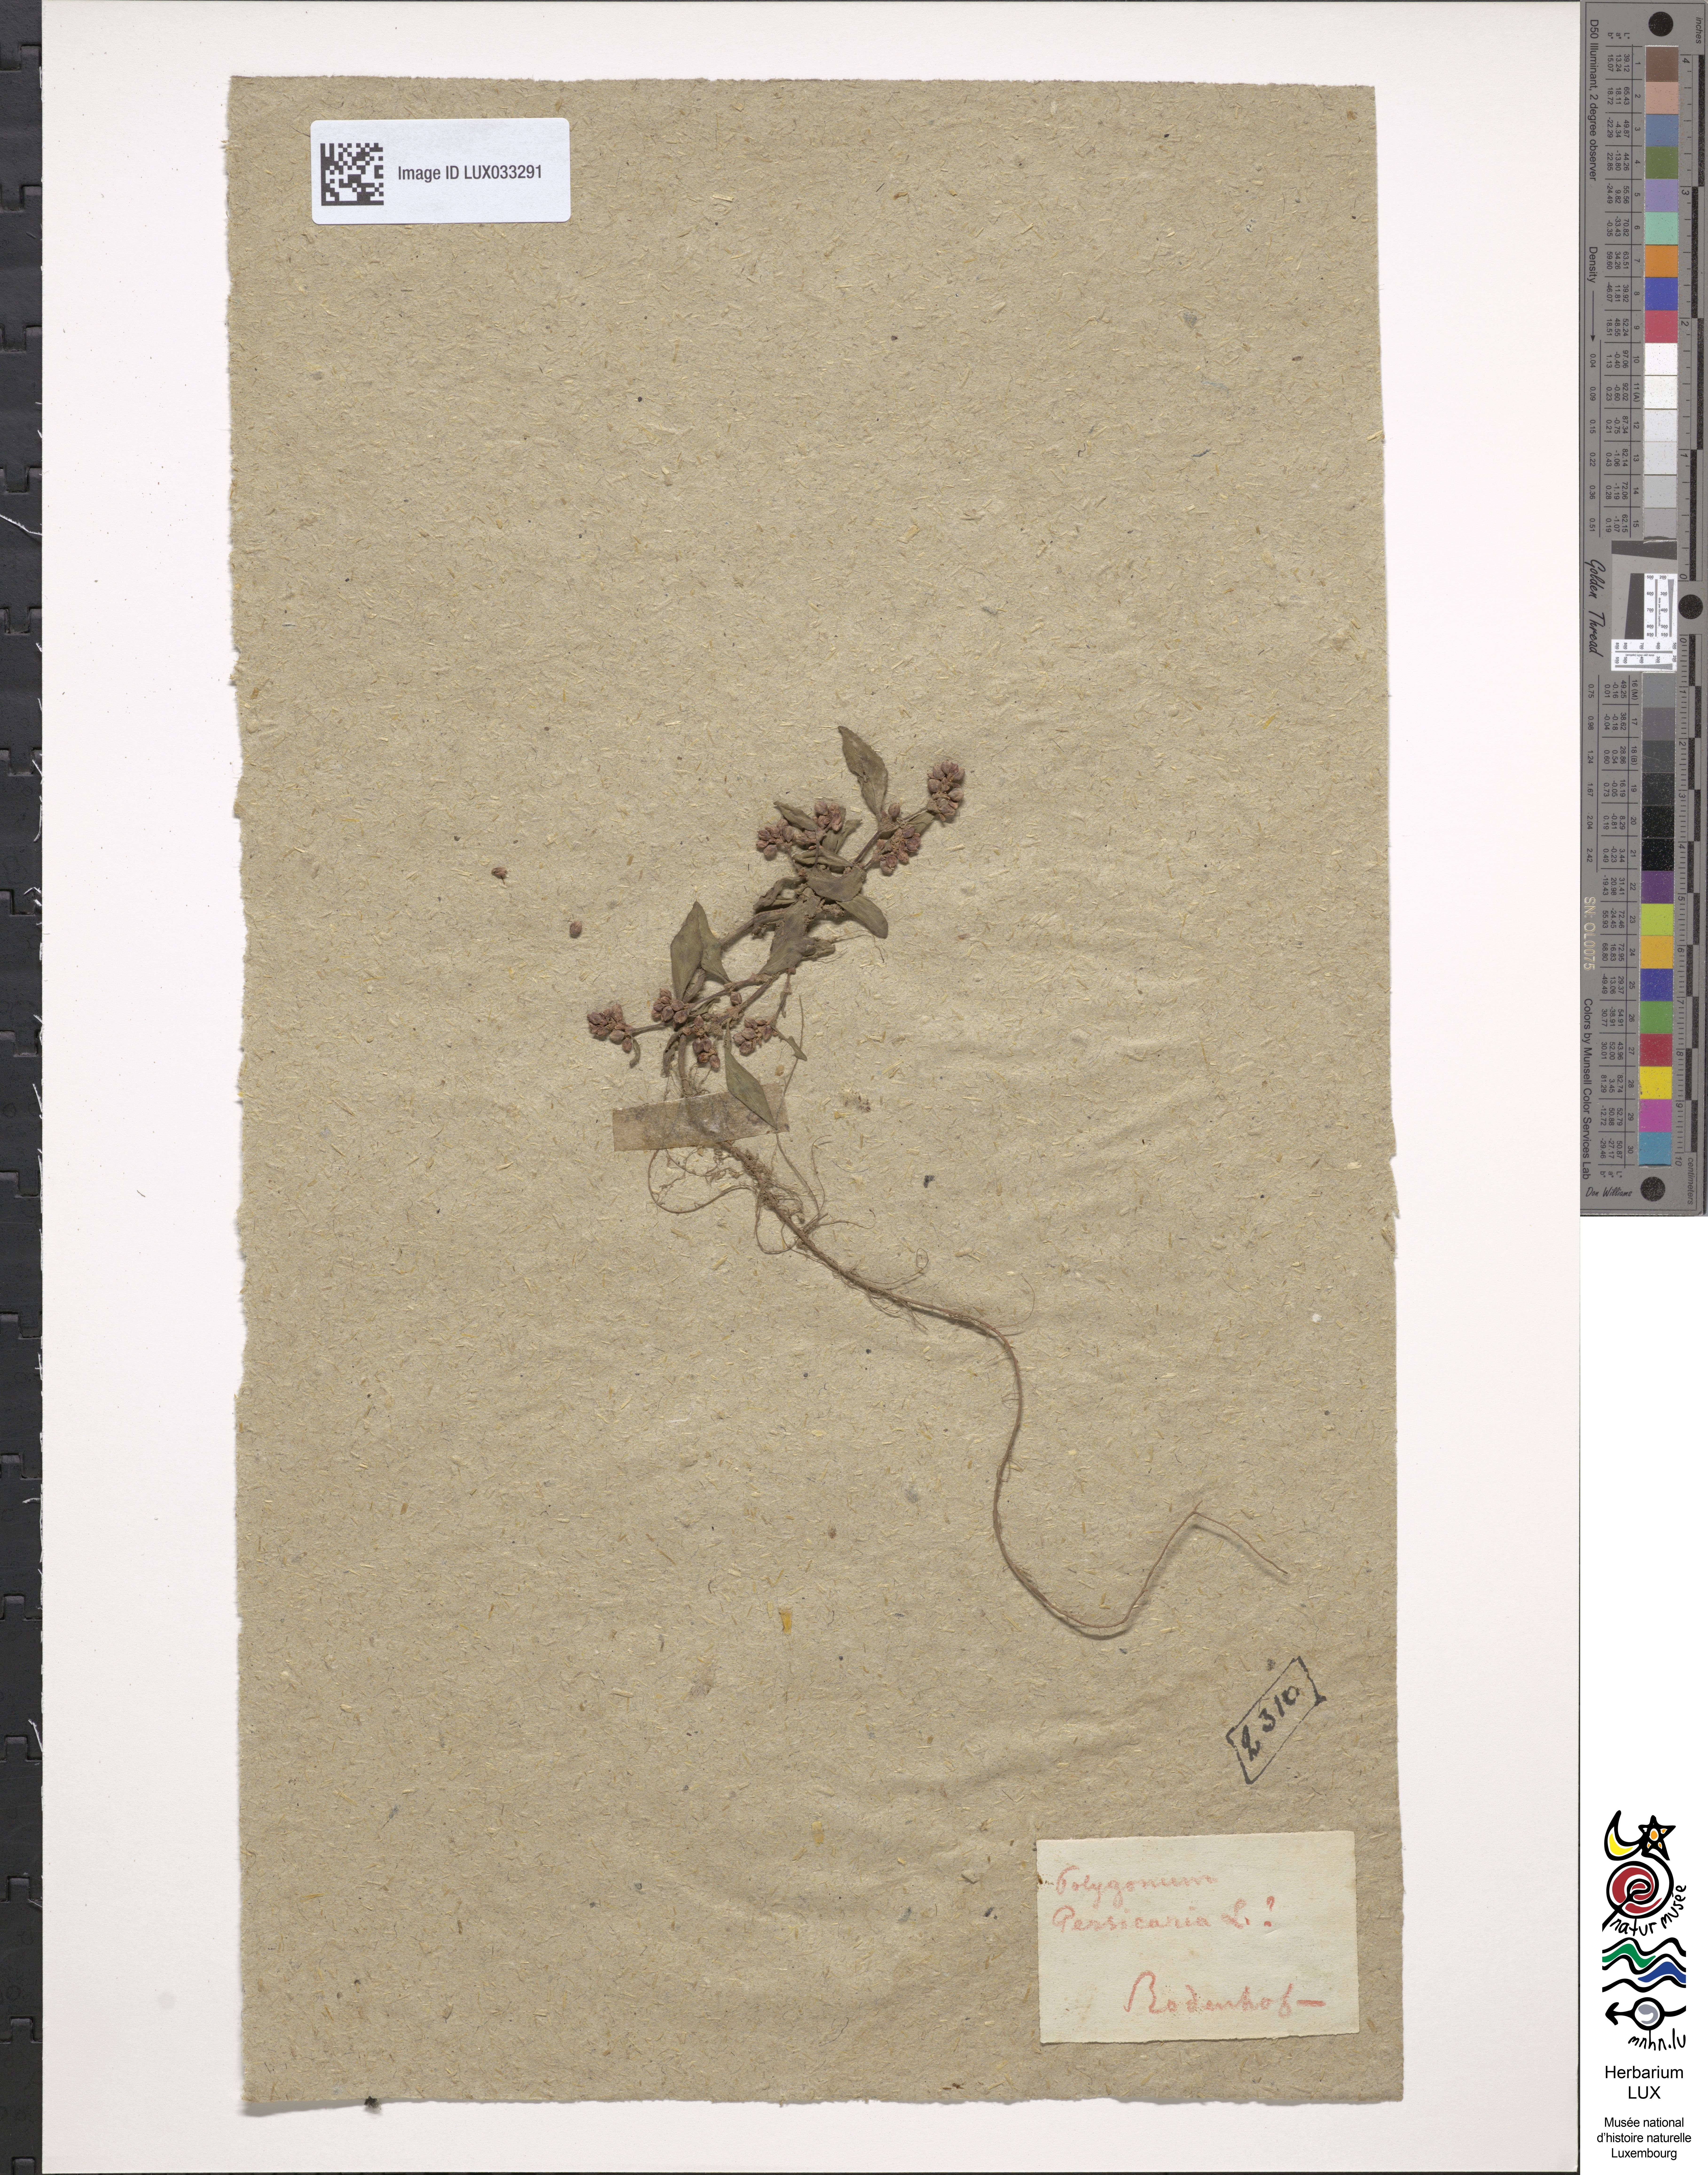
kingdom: Plantae
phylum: Tracheophyta
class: Magnoliopsida
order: Caryophyllales
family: Polygonaceae
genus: Persicaria
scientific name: Persicaria maculosa
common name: Redshank
